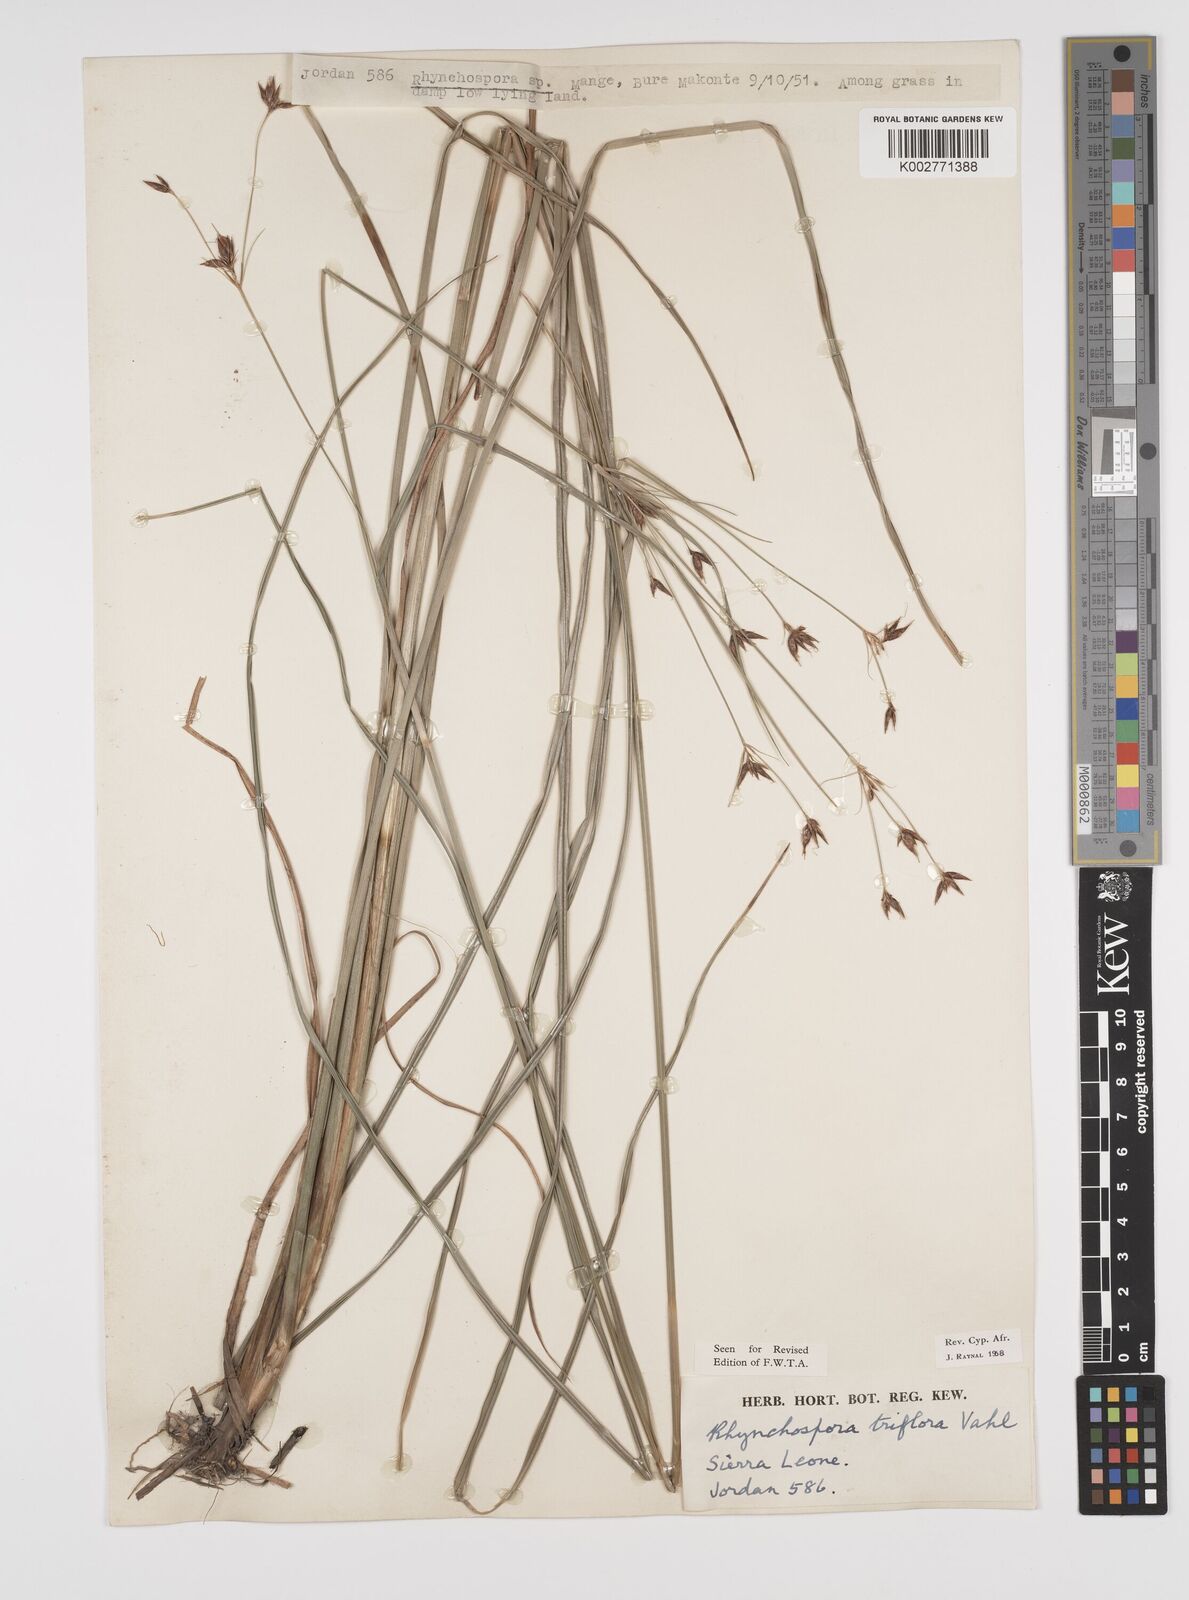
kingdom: Plantae
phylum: Tracheophyta
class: Liliopsida
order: Poales
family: Cyperaceae
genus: Rhynchospora
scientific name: Rhynchospora triflora
